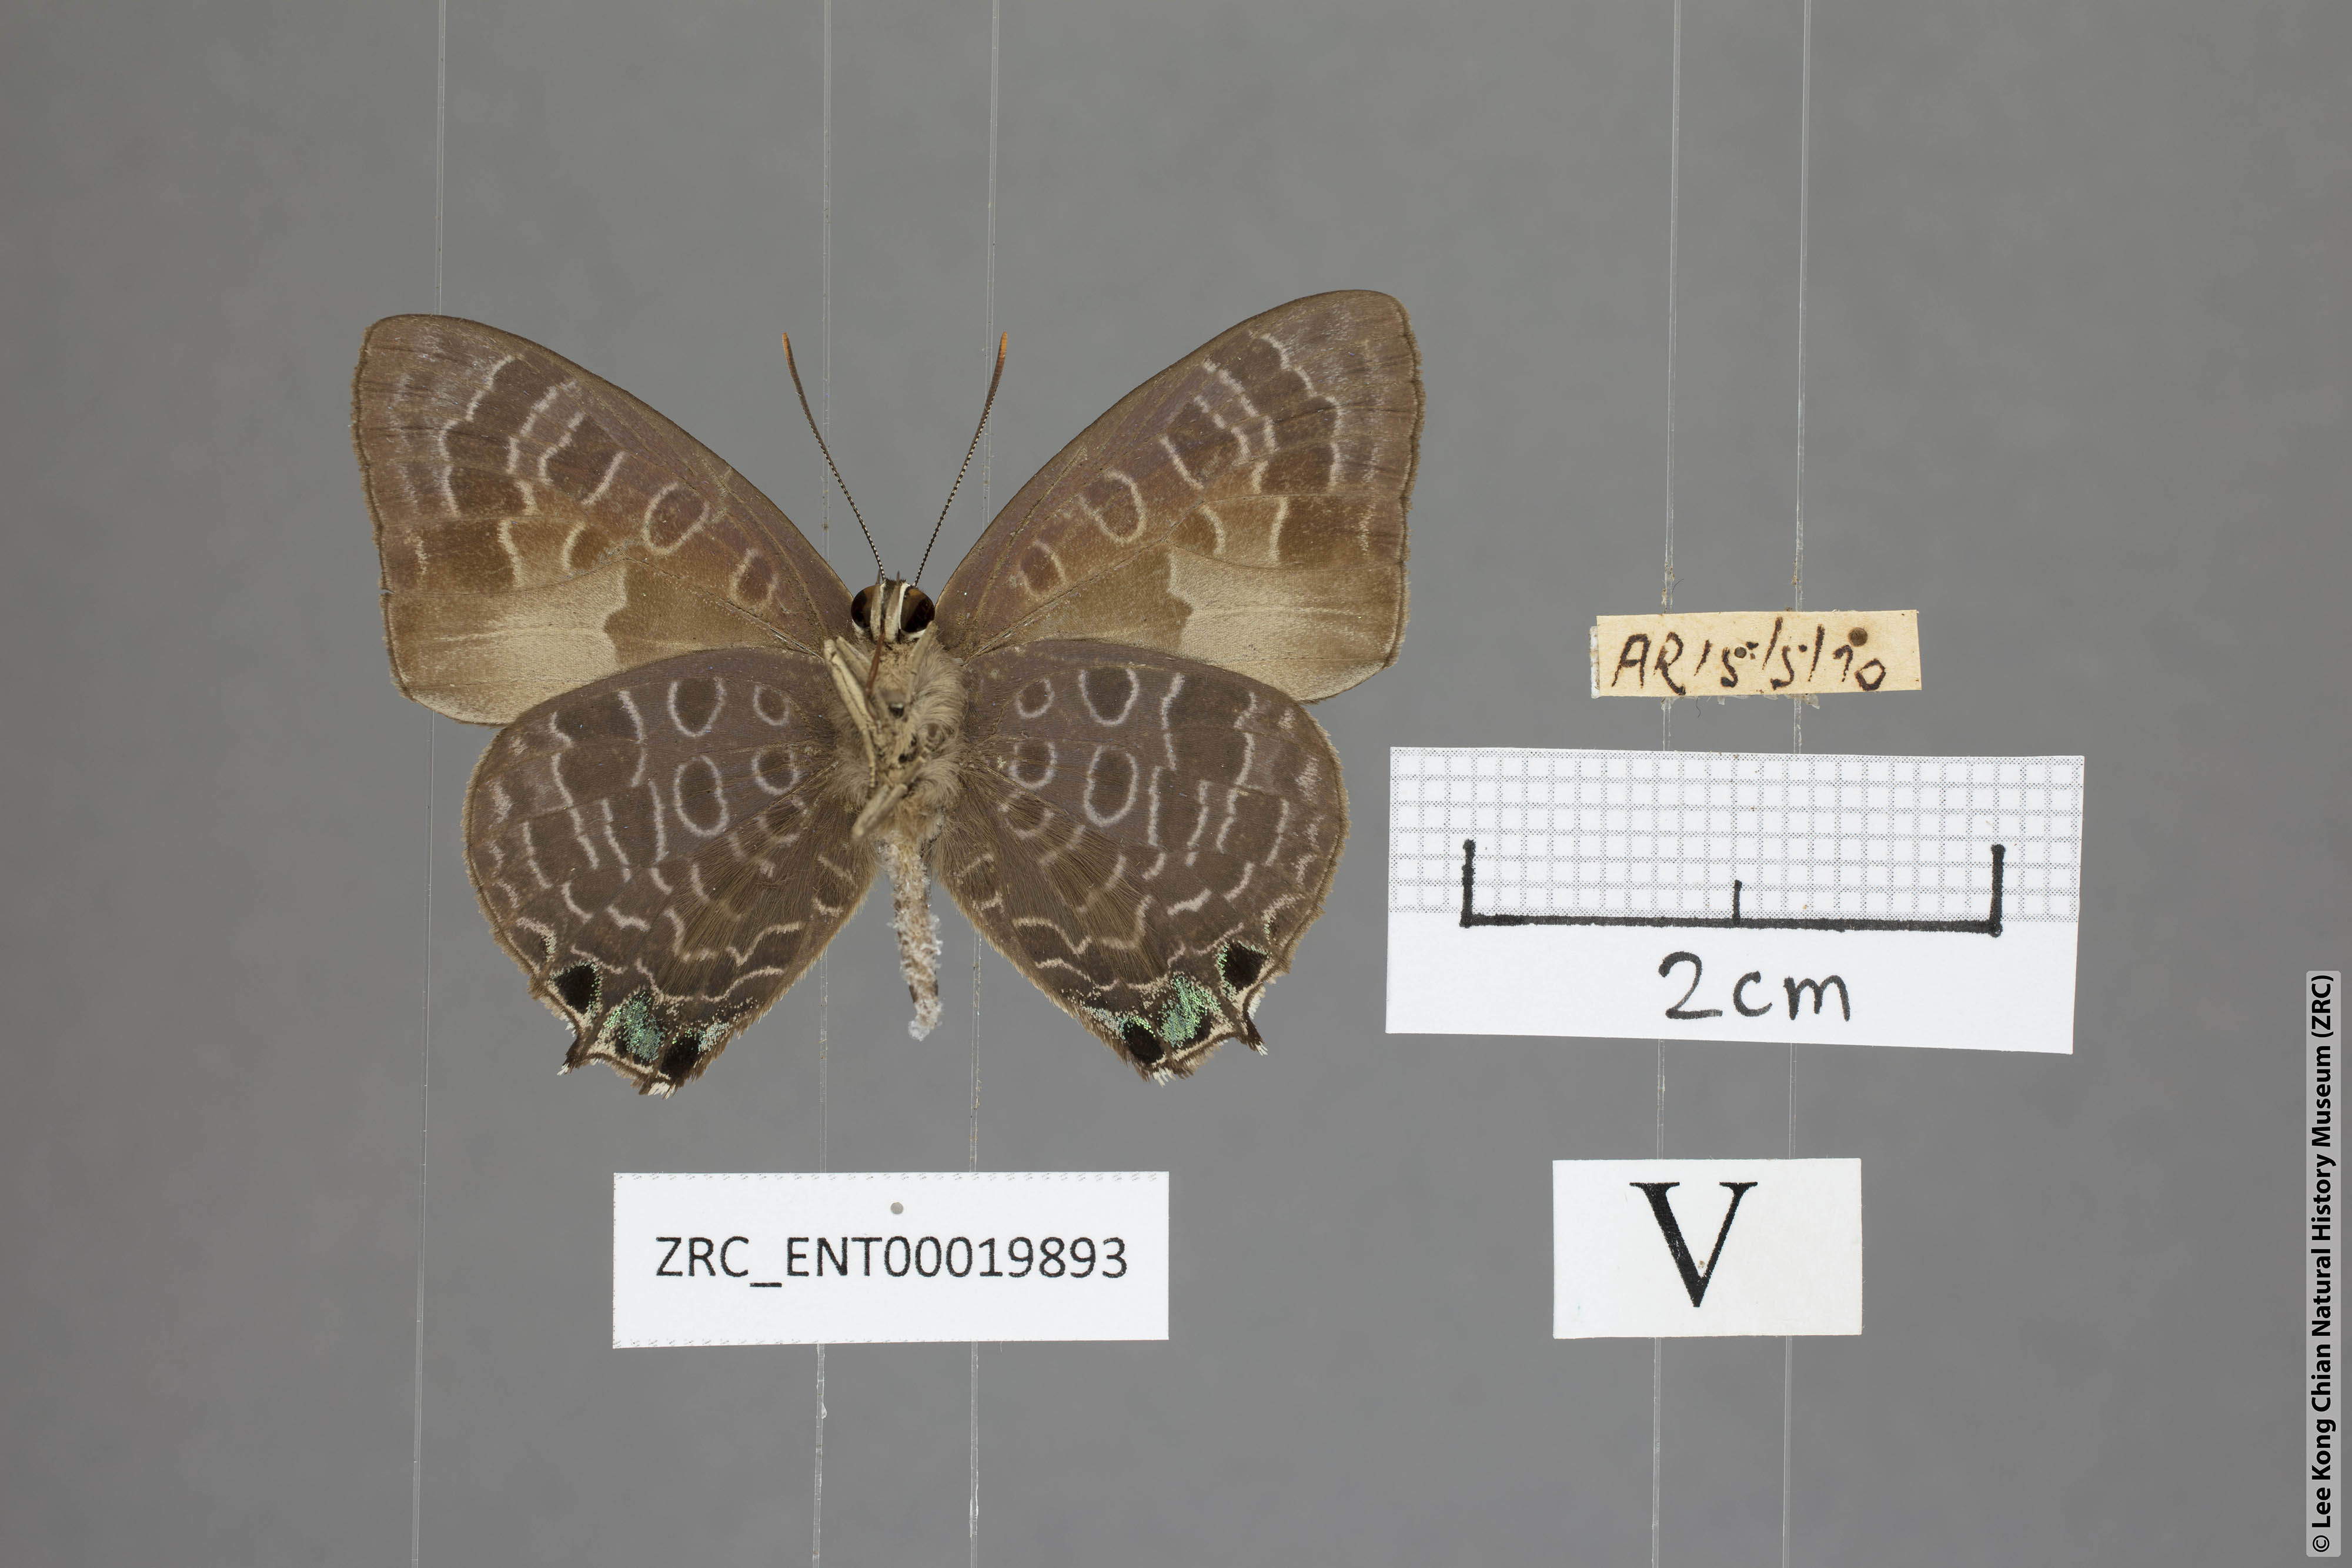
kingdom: Animalia
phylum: Arthropoda
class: Insecta
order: Lepidoptera
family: Lycaenidae
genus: Arhopala
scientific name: Arhopala trogon
